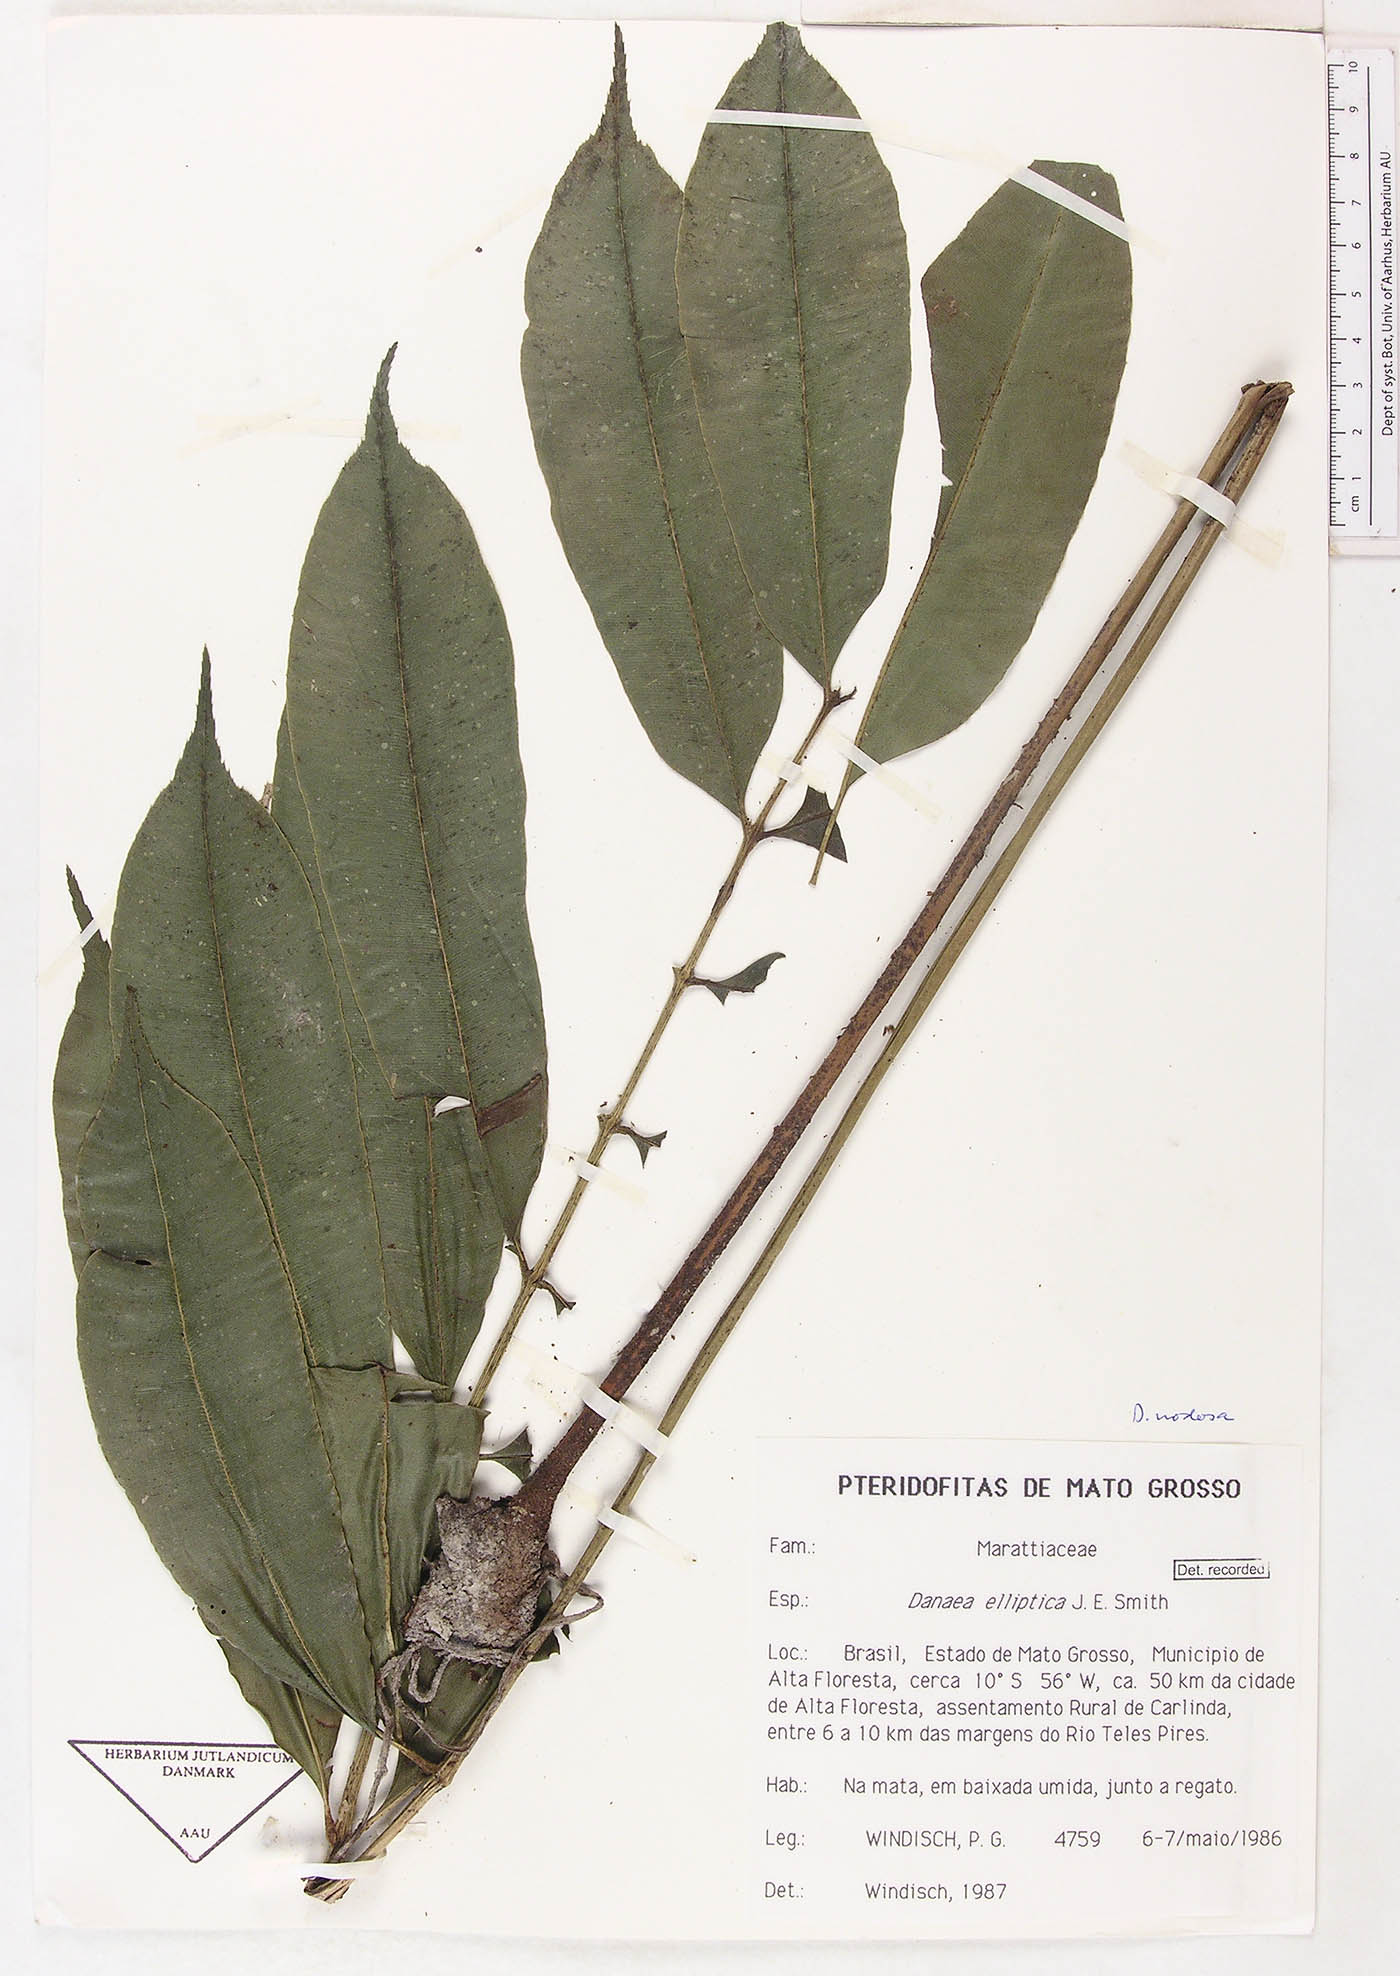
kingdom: Plantae
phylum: Tracheophyta
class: Polypodiopsida
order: Marattiales
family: Marattiaceae
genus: Danaea
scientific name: Danaea nodosa
